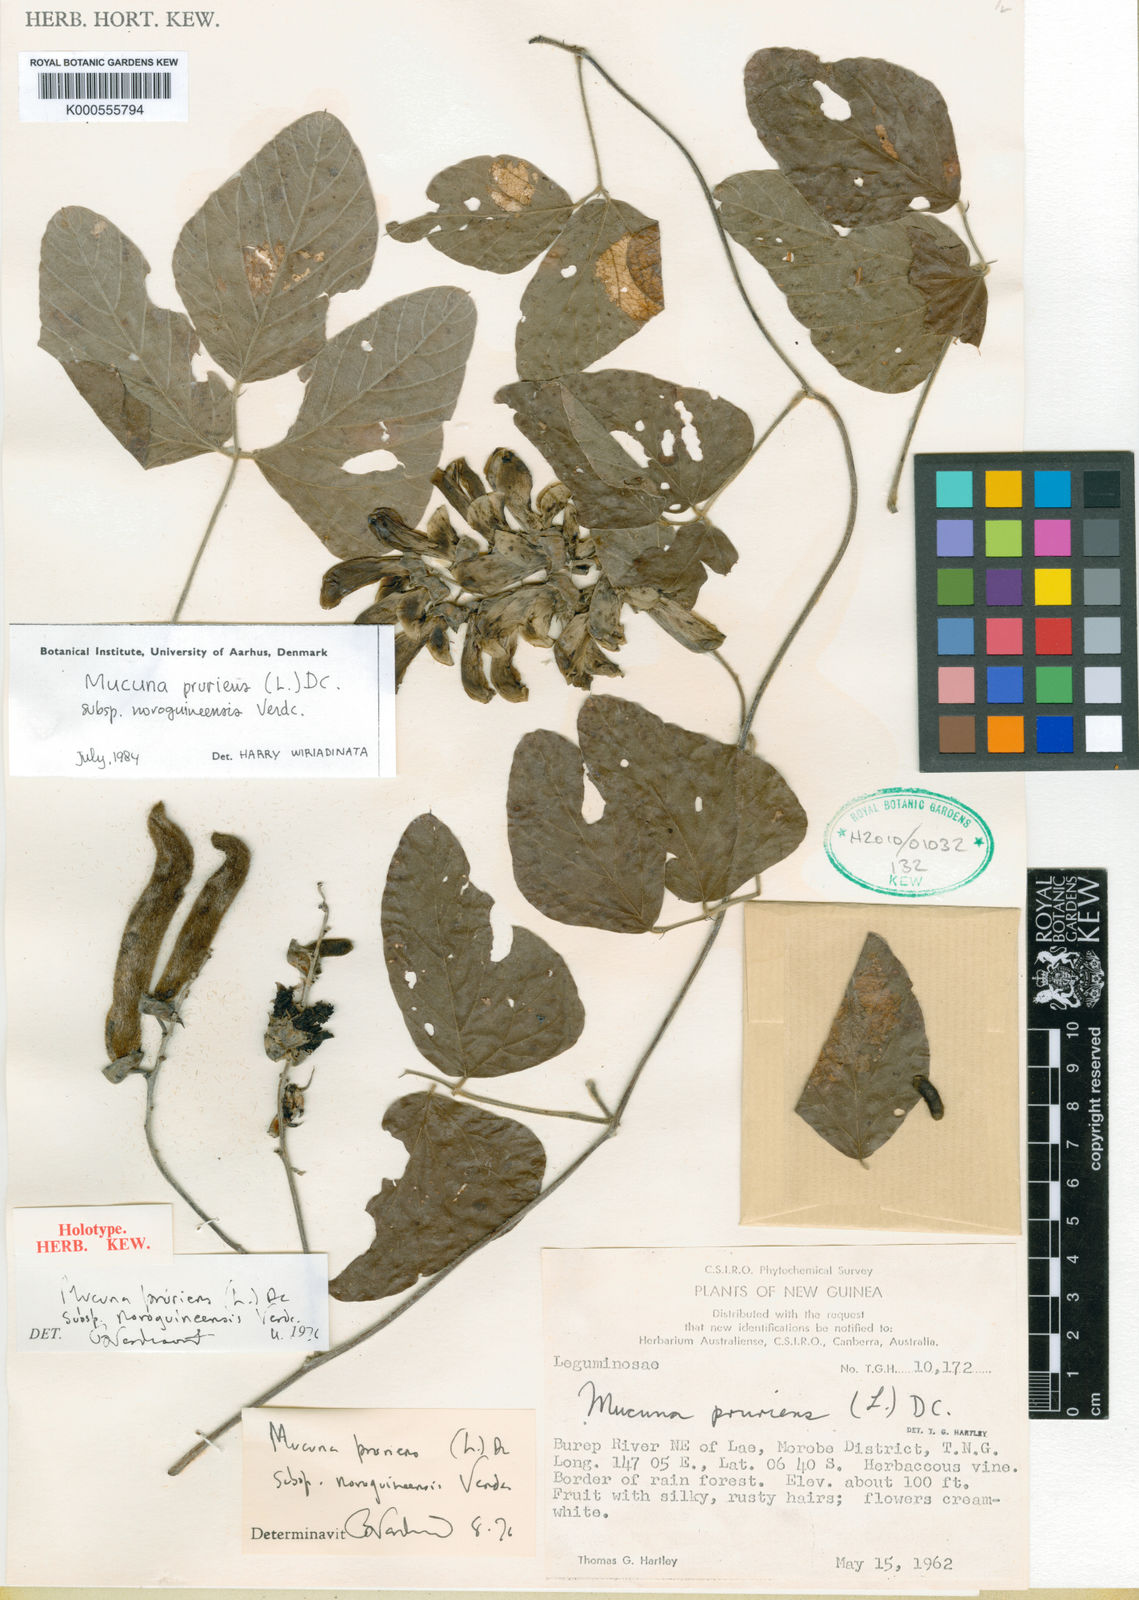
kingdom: Plantae
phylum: Tracheophyta
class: Magnoliopsida
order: Fabales
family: Fabaceae
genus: Mucuna
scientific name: Mucuna papuana
